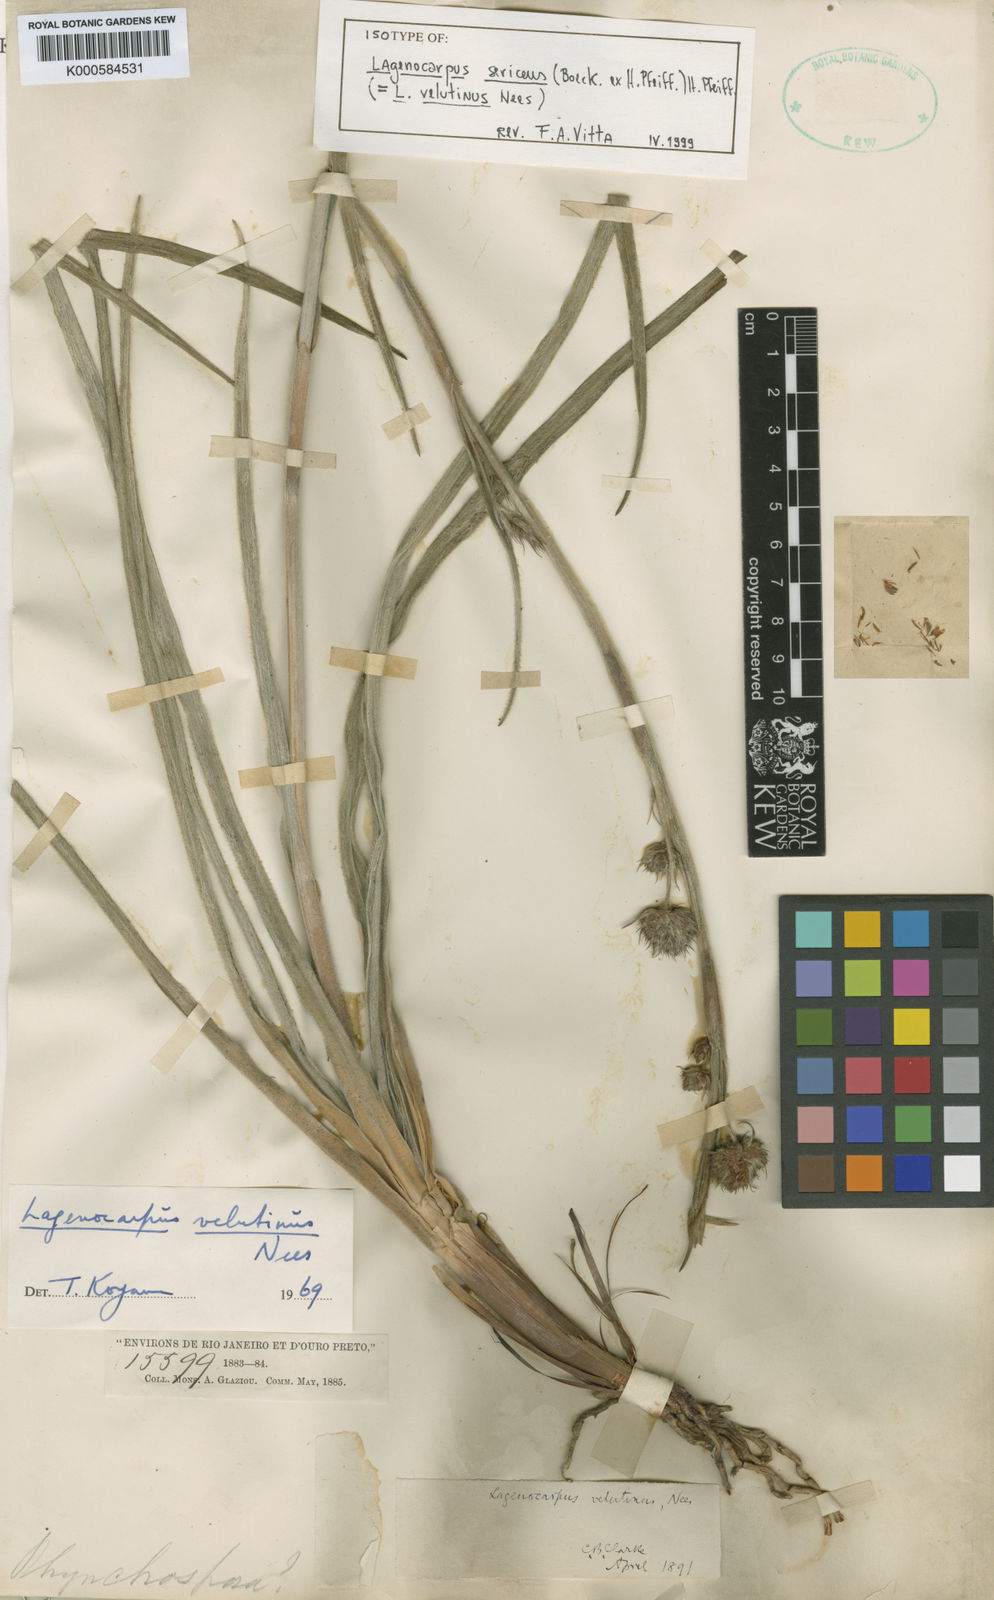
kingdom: Plantae
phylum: Tracheophyta
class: Liliopsida
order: Poales
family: Cyperaceae
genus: Lagenocarpus
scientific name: Lagenocarpus griseus
